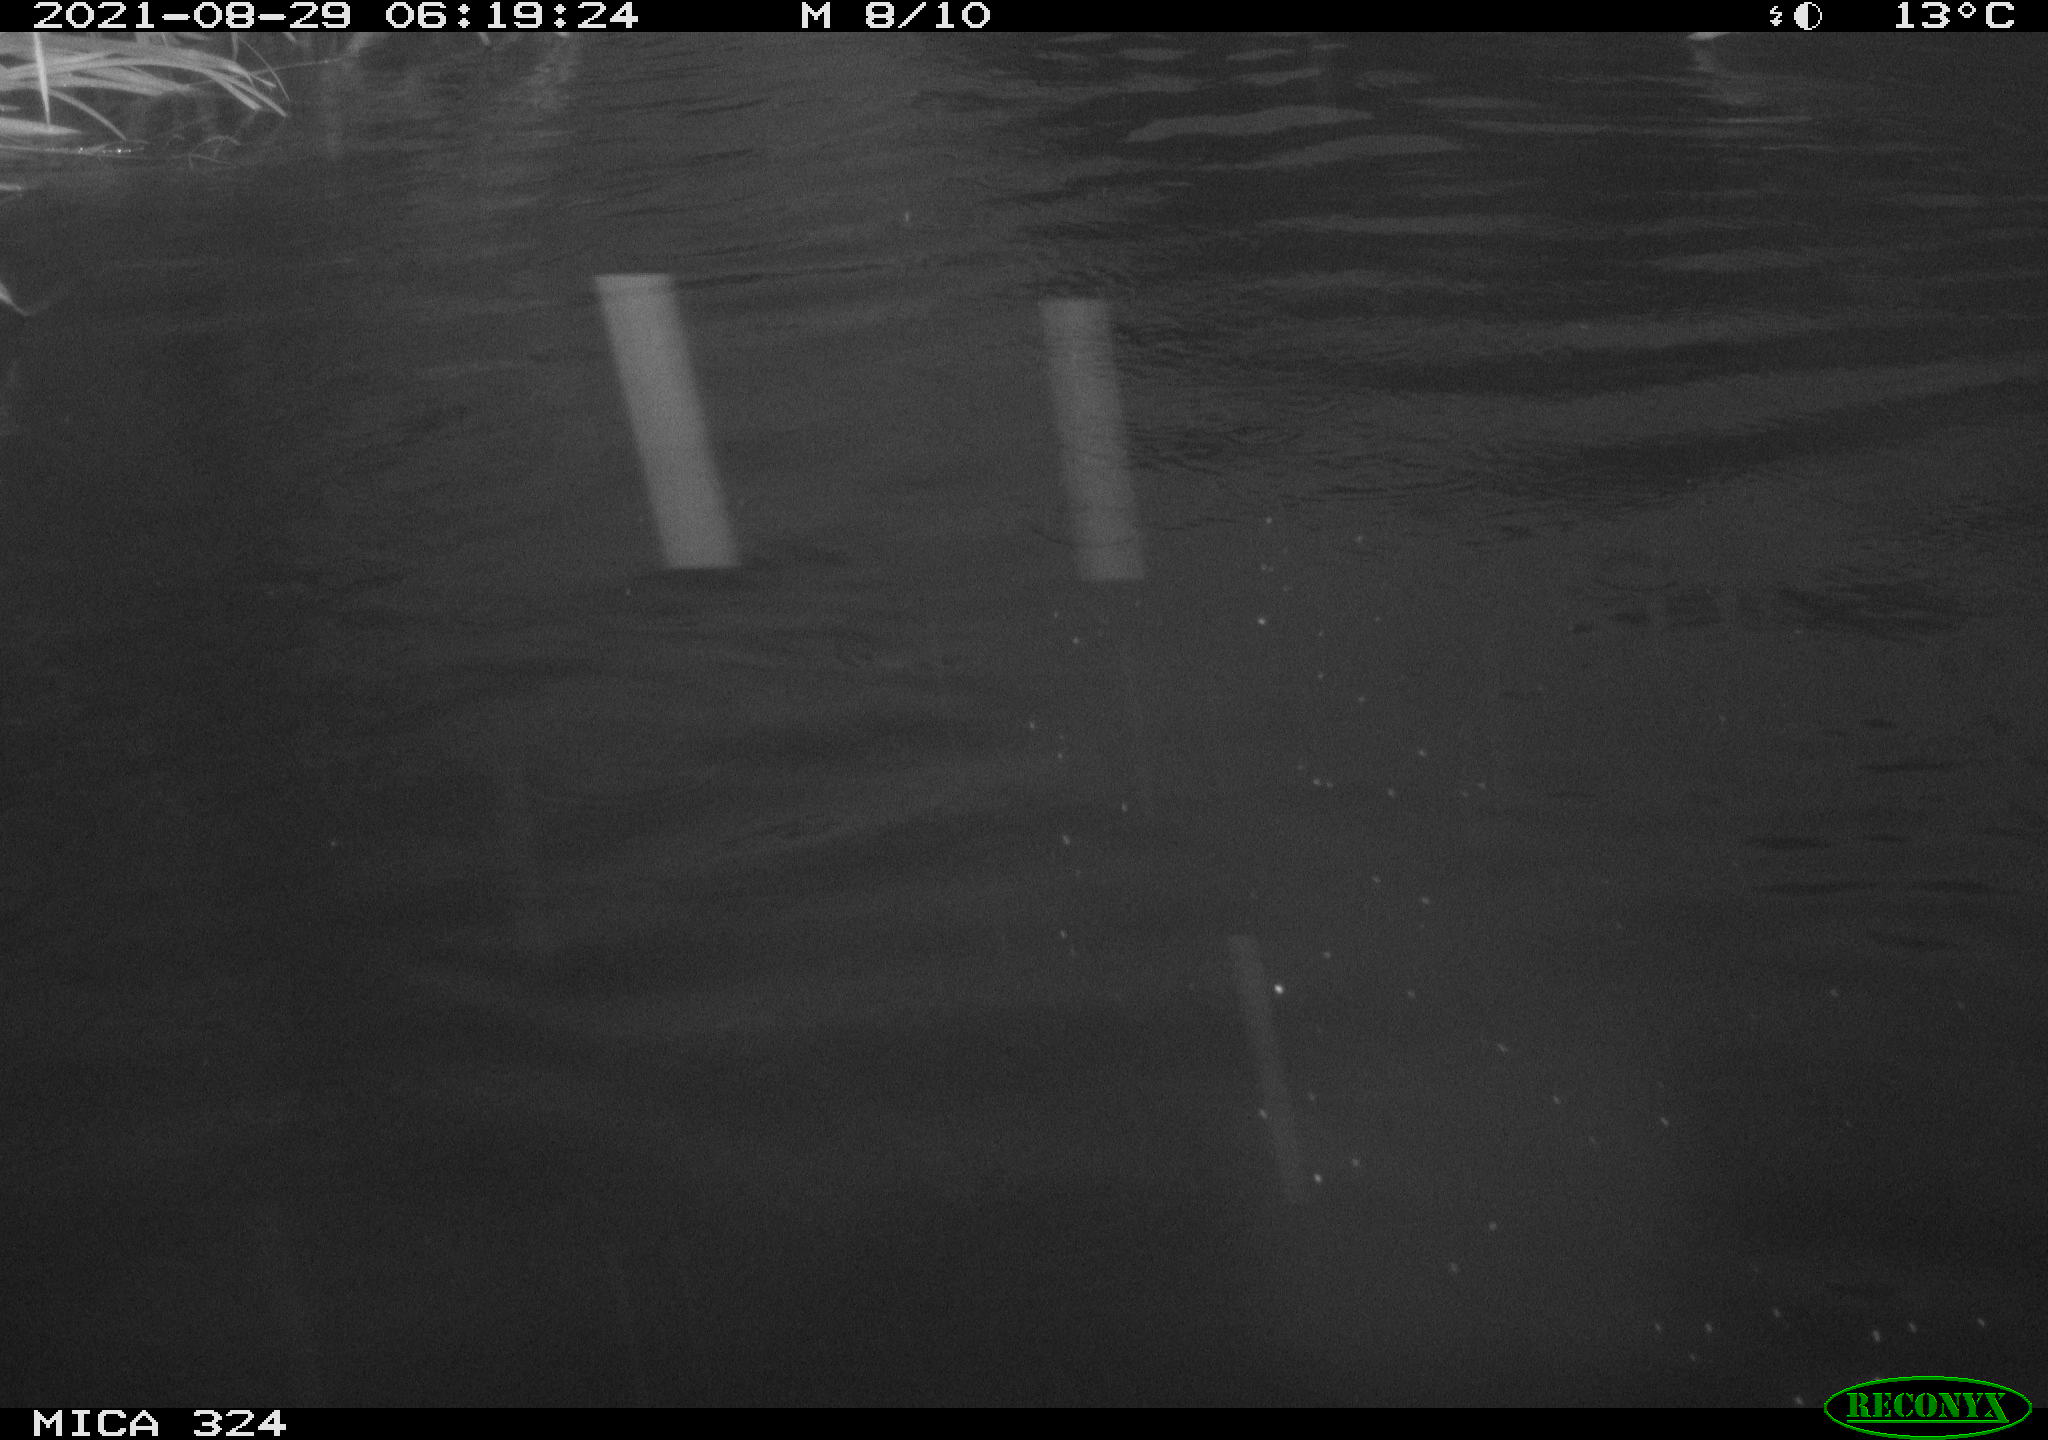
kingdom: Animalia
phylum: Chordata
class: Aves
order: Anseriformes
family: Anatidae
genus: Anas
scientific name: Anas platyrhynchos
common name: Mallard
